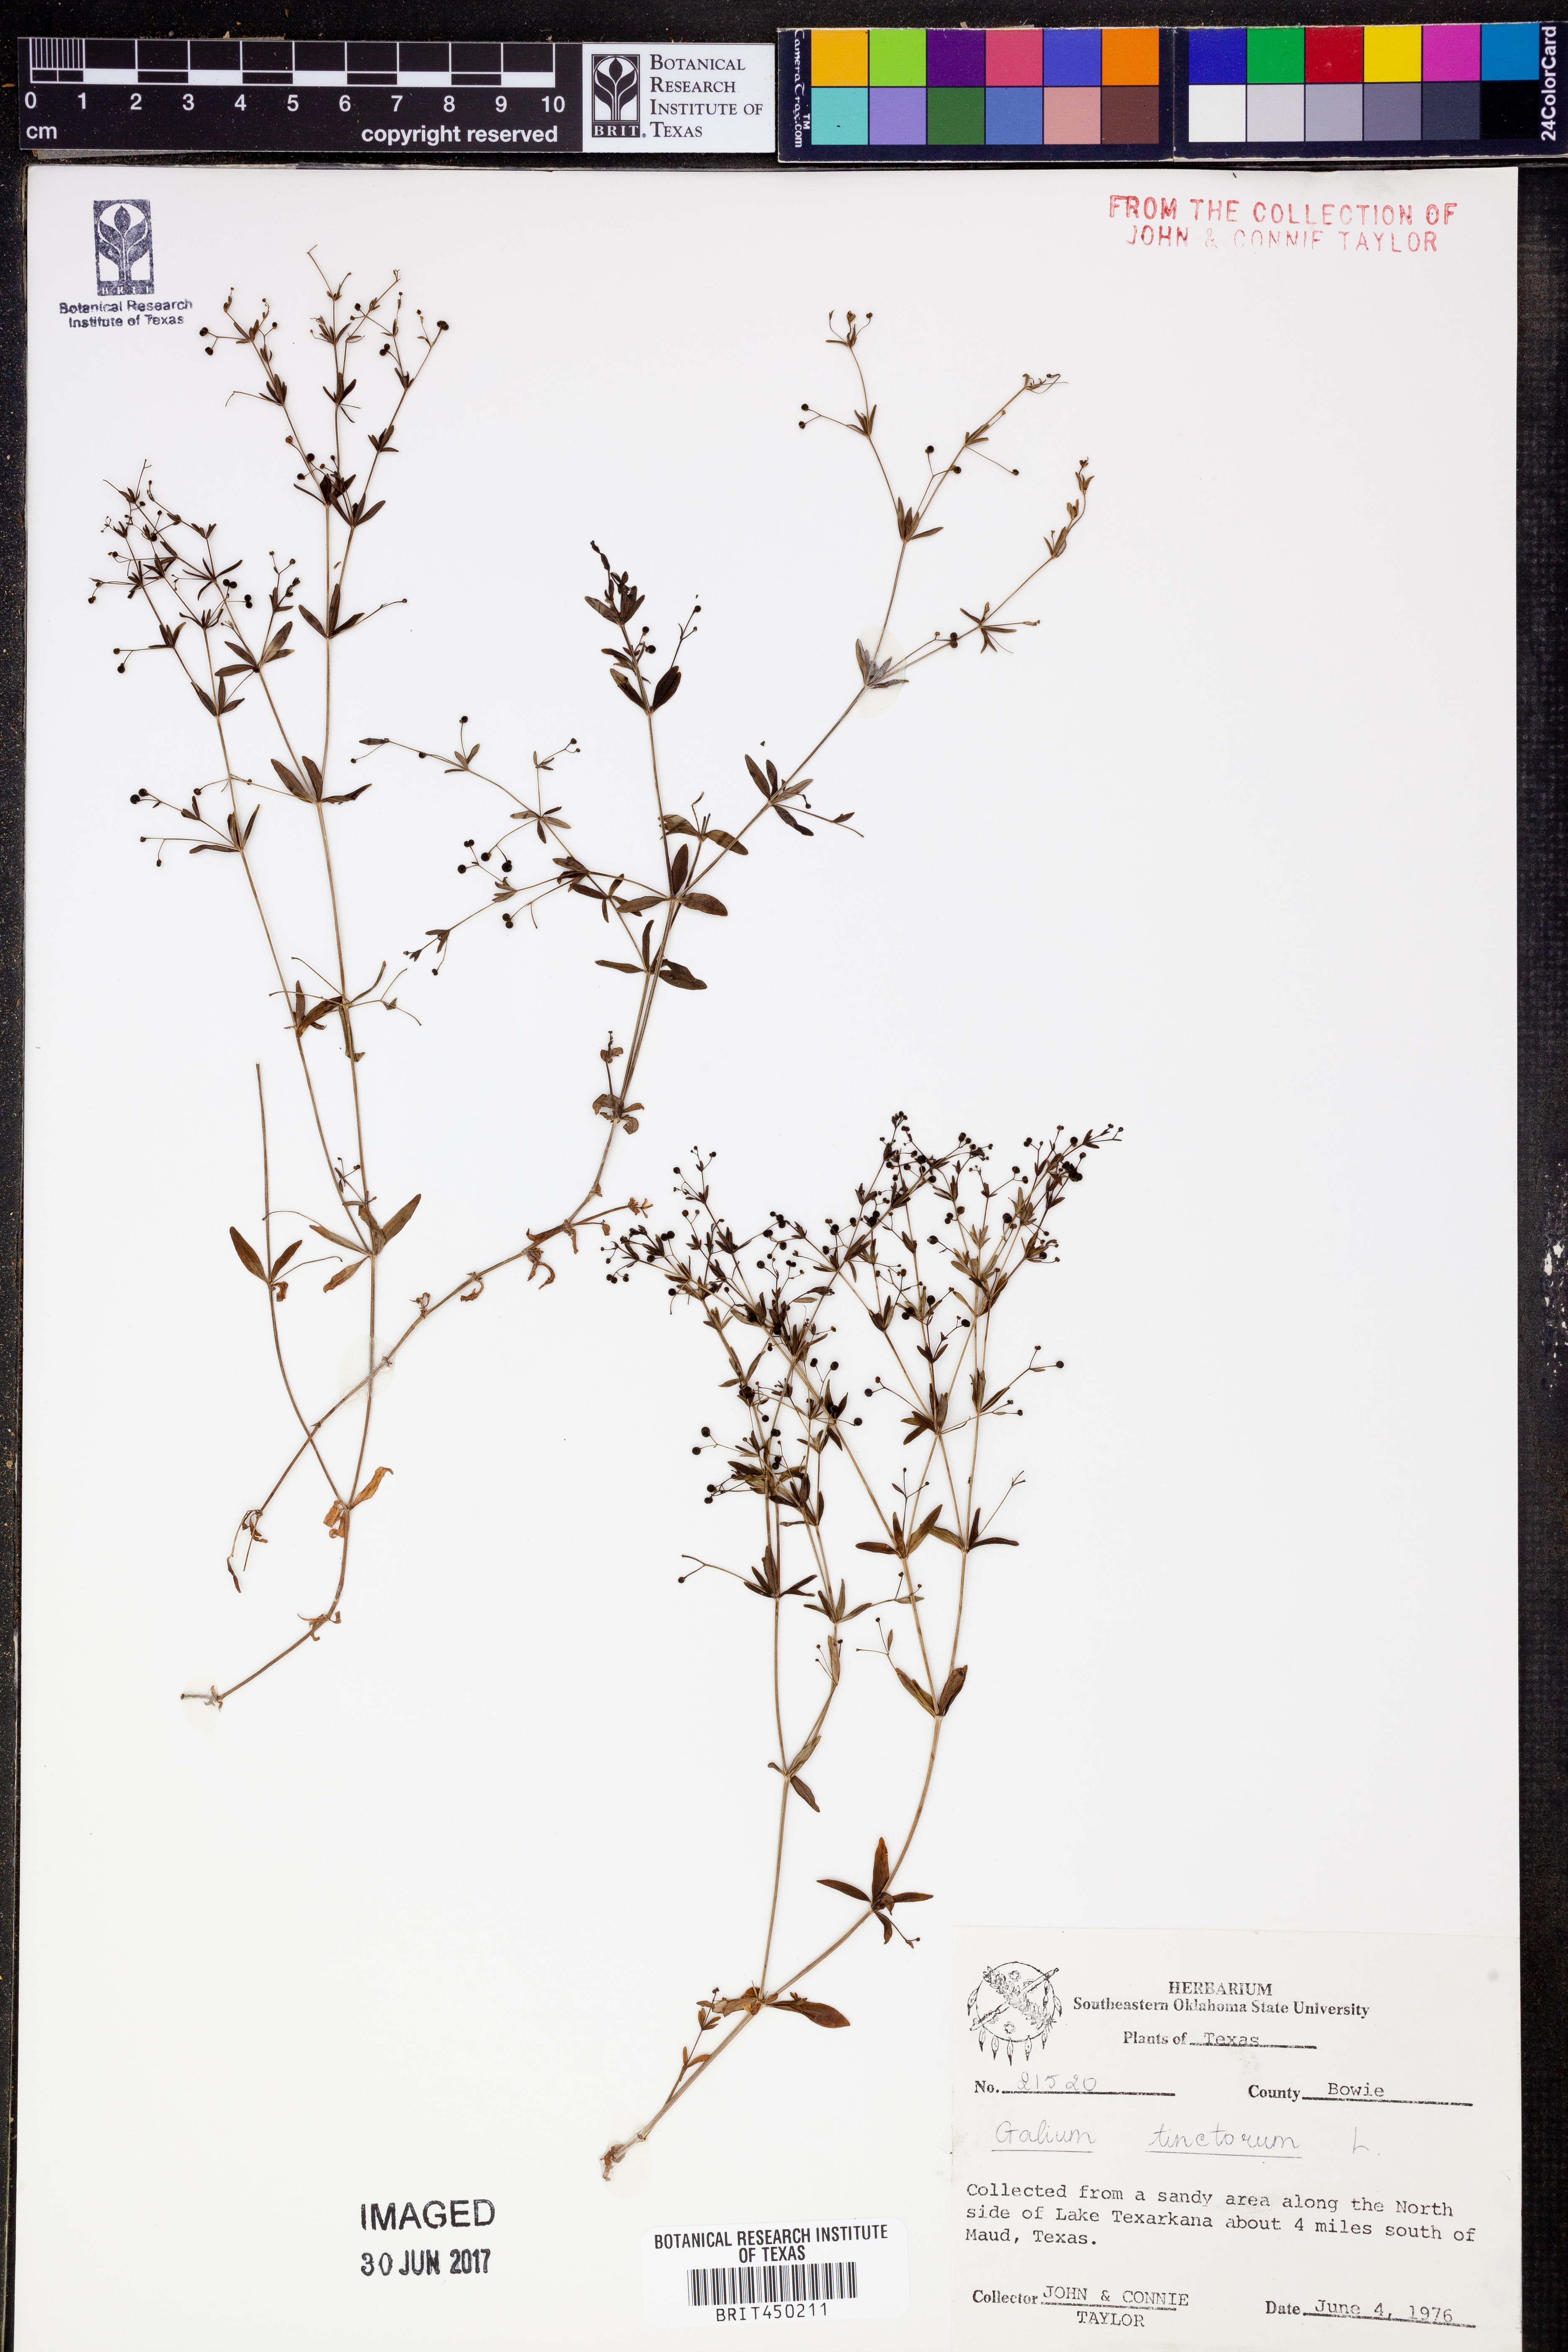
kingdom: Plantae
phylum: Tracheophyta
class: Magnoliopsida
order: Gentianales
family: Rubiaceae
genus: Asperula
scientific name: Asperula tinctoria
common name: Dyer's woodruff
